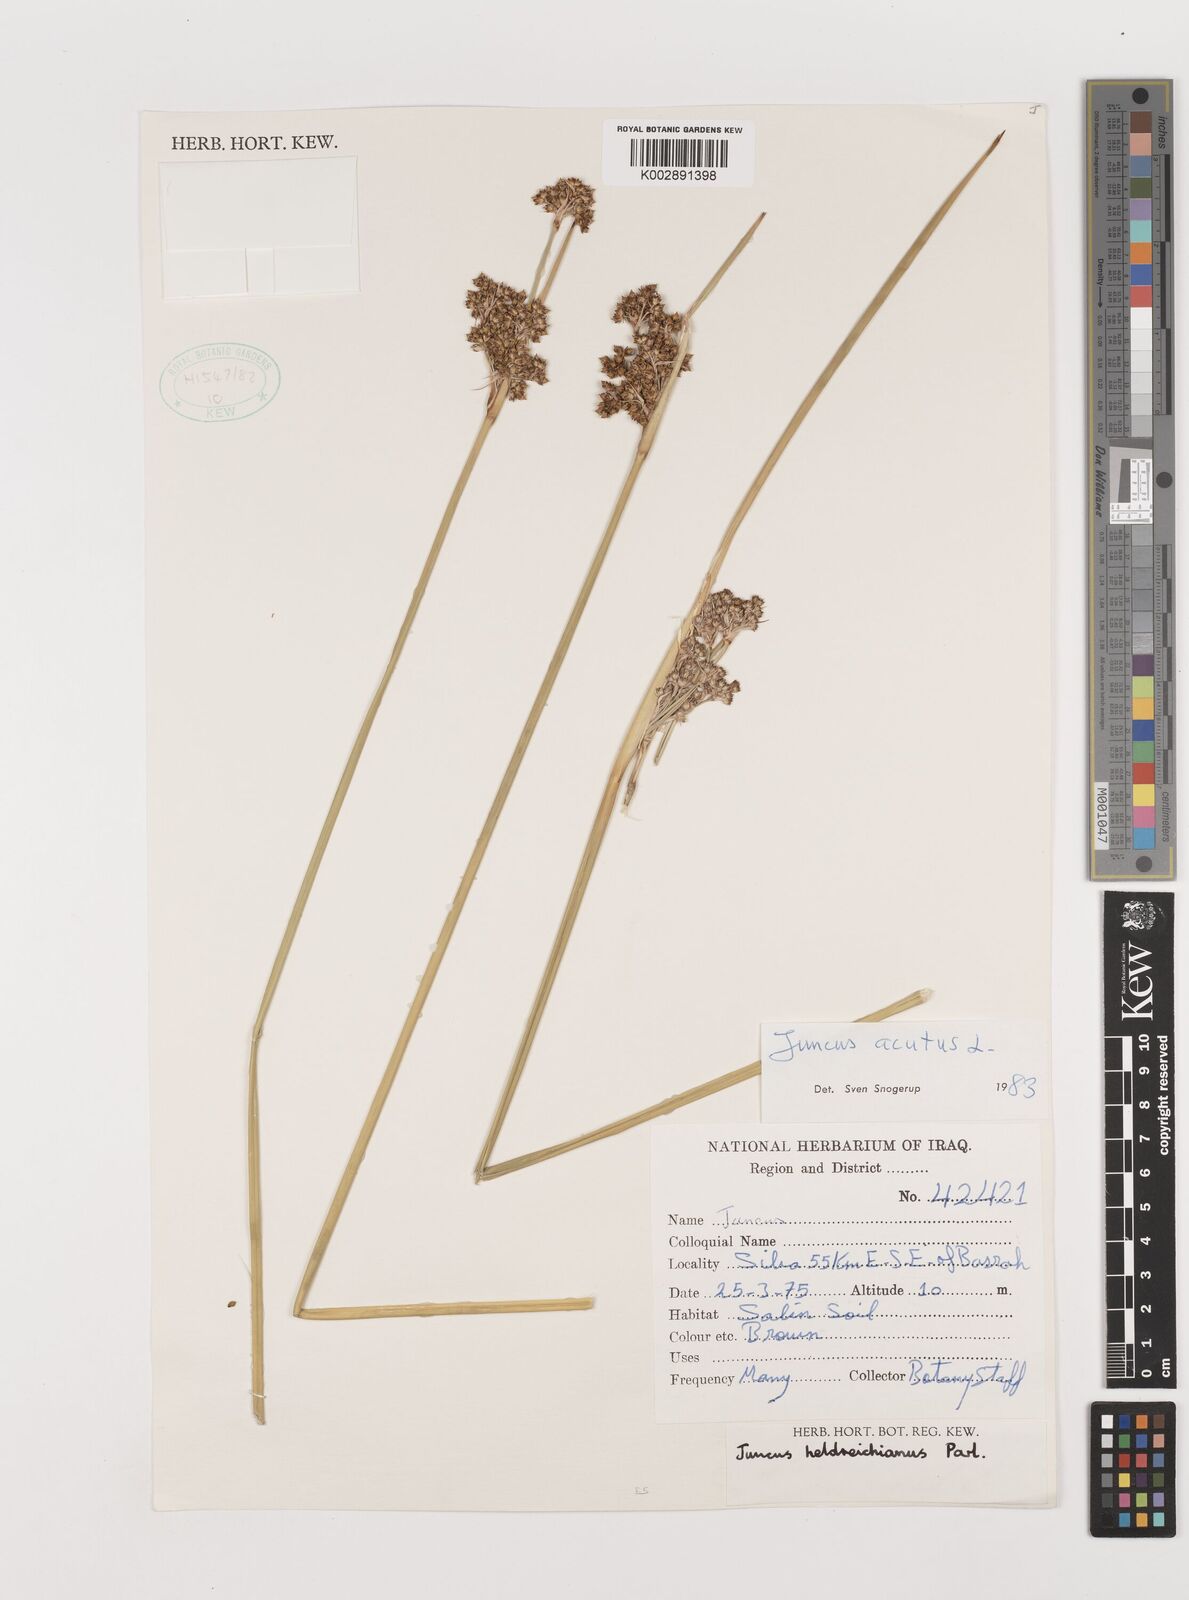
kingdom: Plantae
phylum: Tracheophyta
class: Liliopsida
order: Poales
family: Juncaceae
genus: Juncus
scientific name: Juncus acutus
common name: Sharp rush
